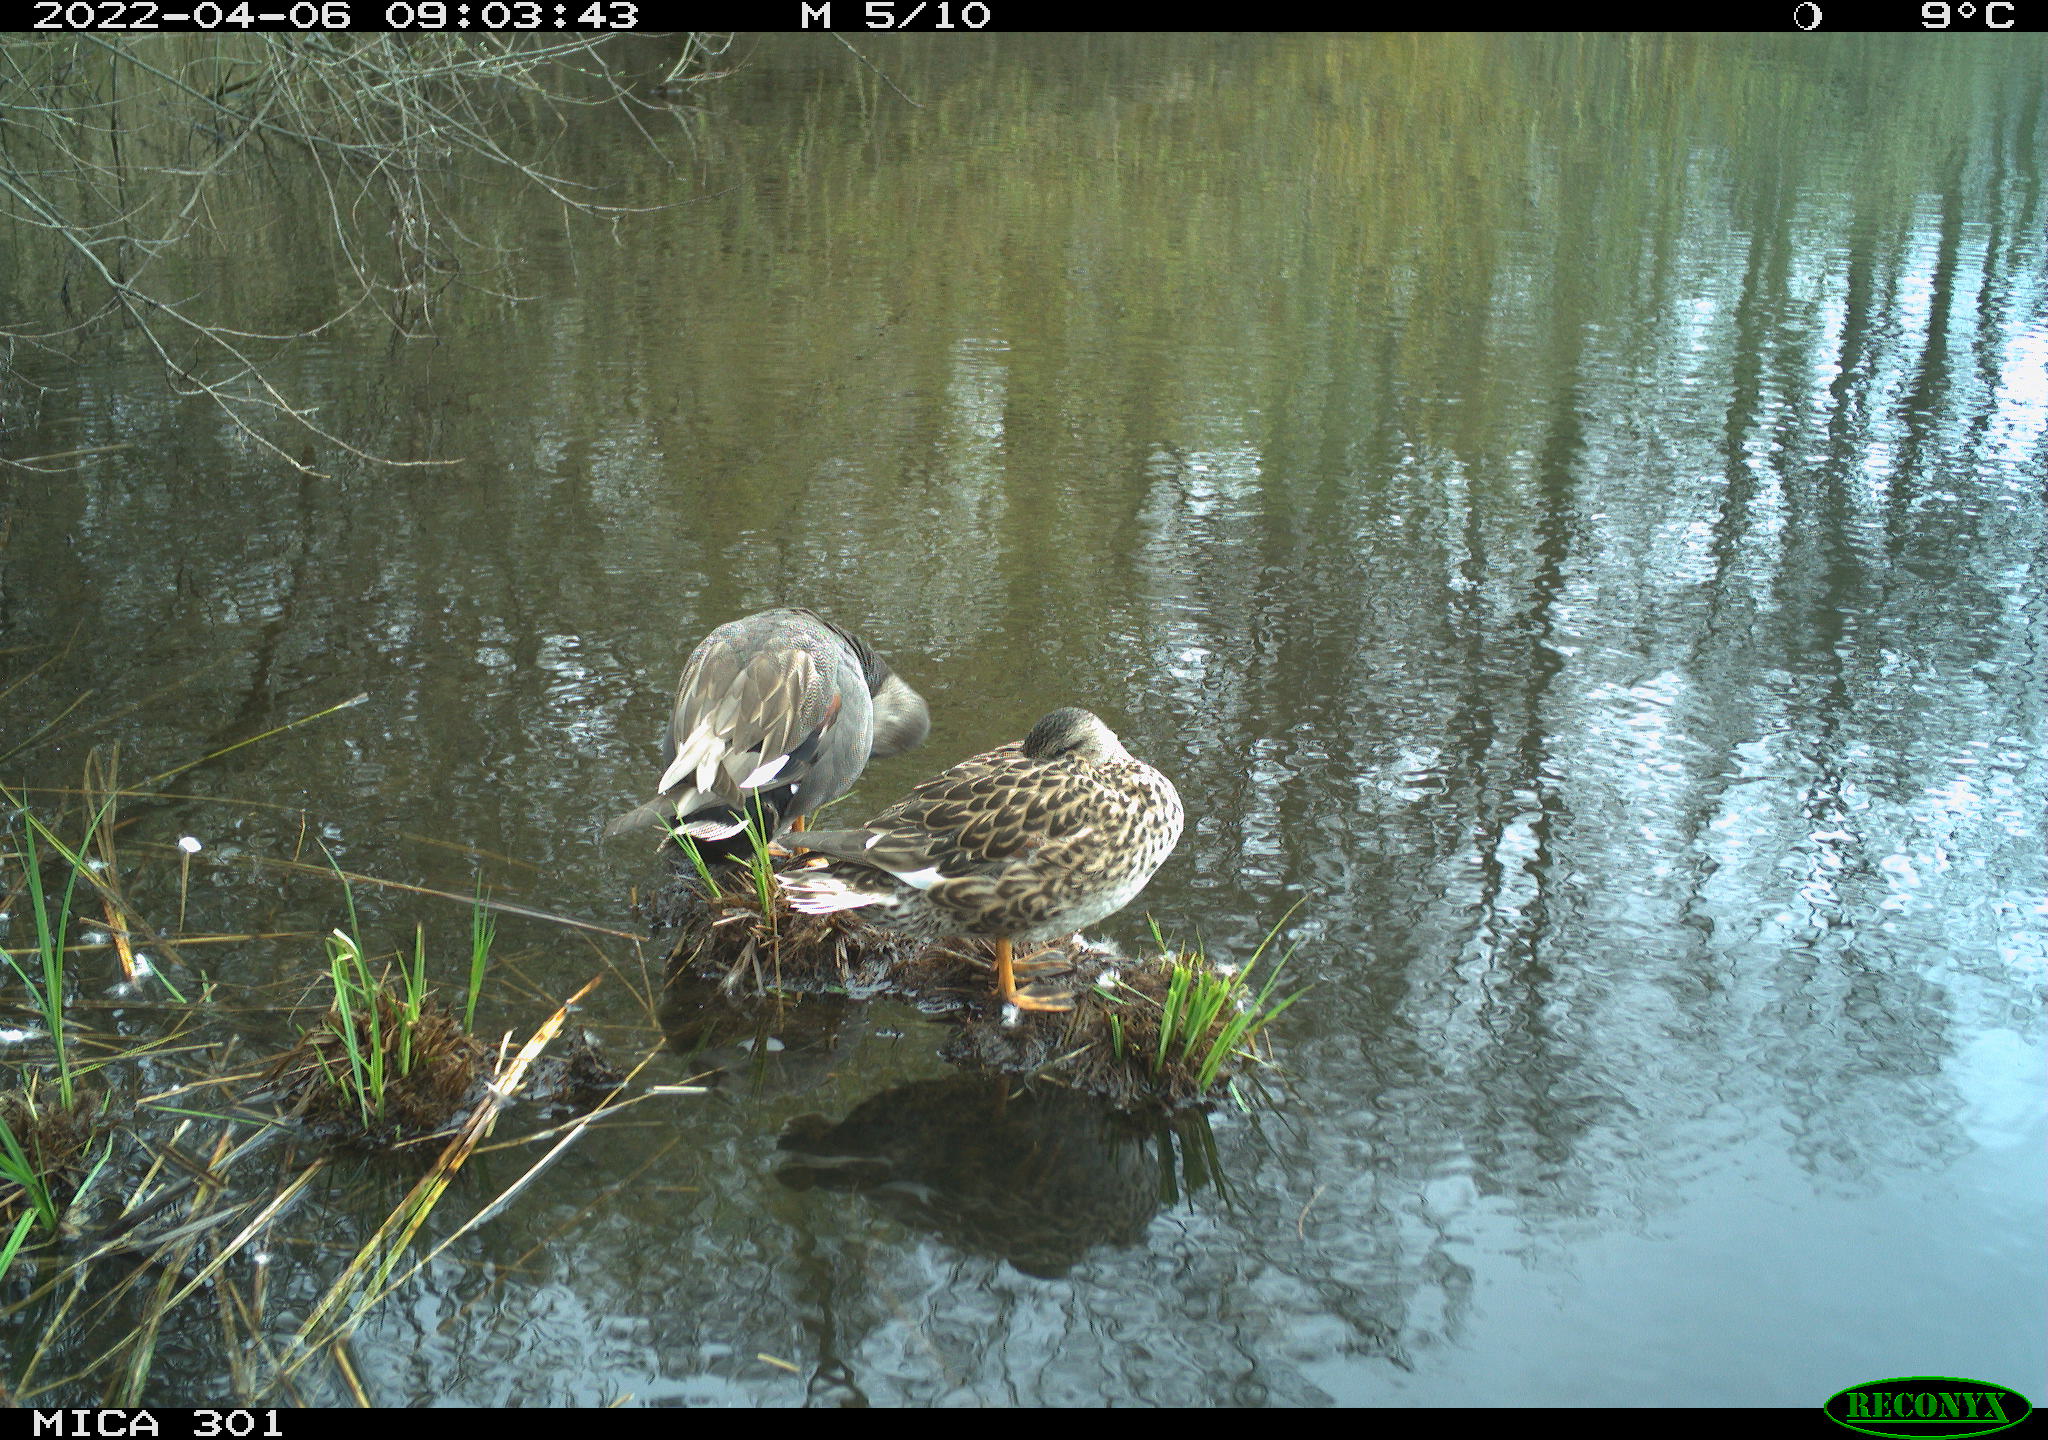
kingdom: Animalia
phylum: Chordata
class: Aves
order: Anseriformes
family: Anatidae
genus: Anas
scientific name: Anas platyrhynchos
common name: Mallard
